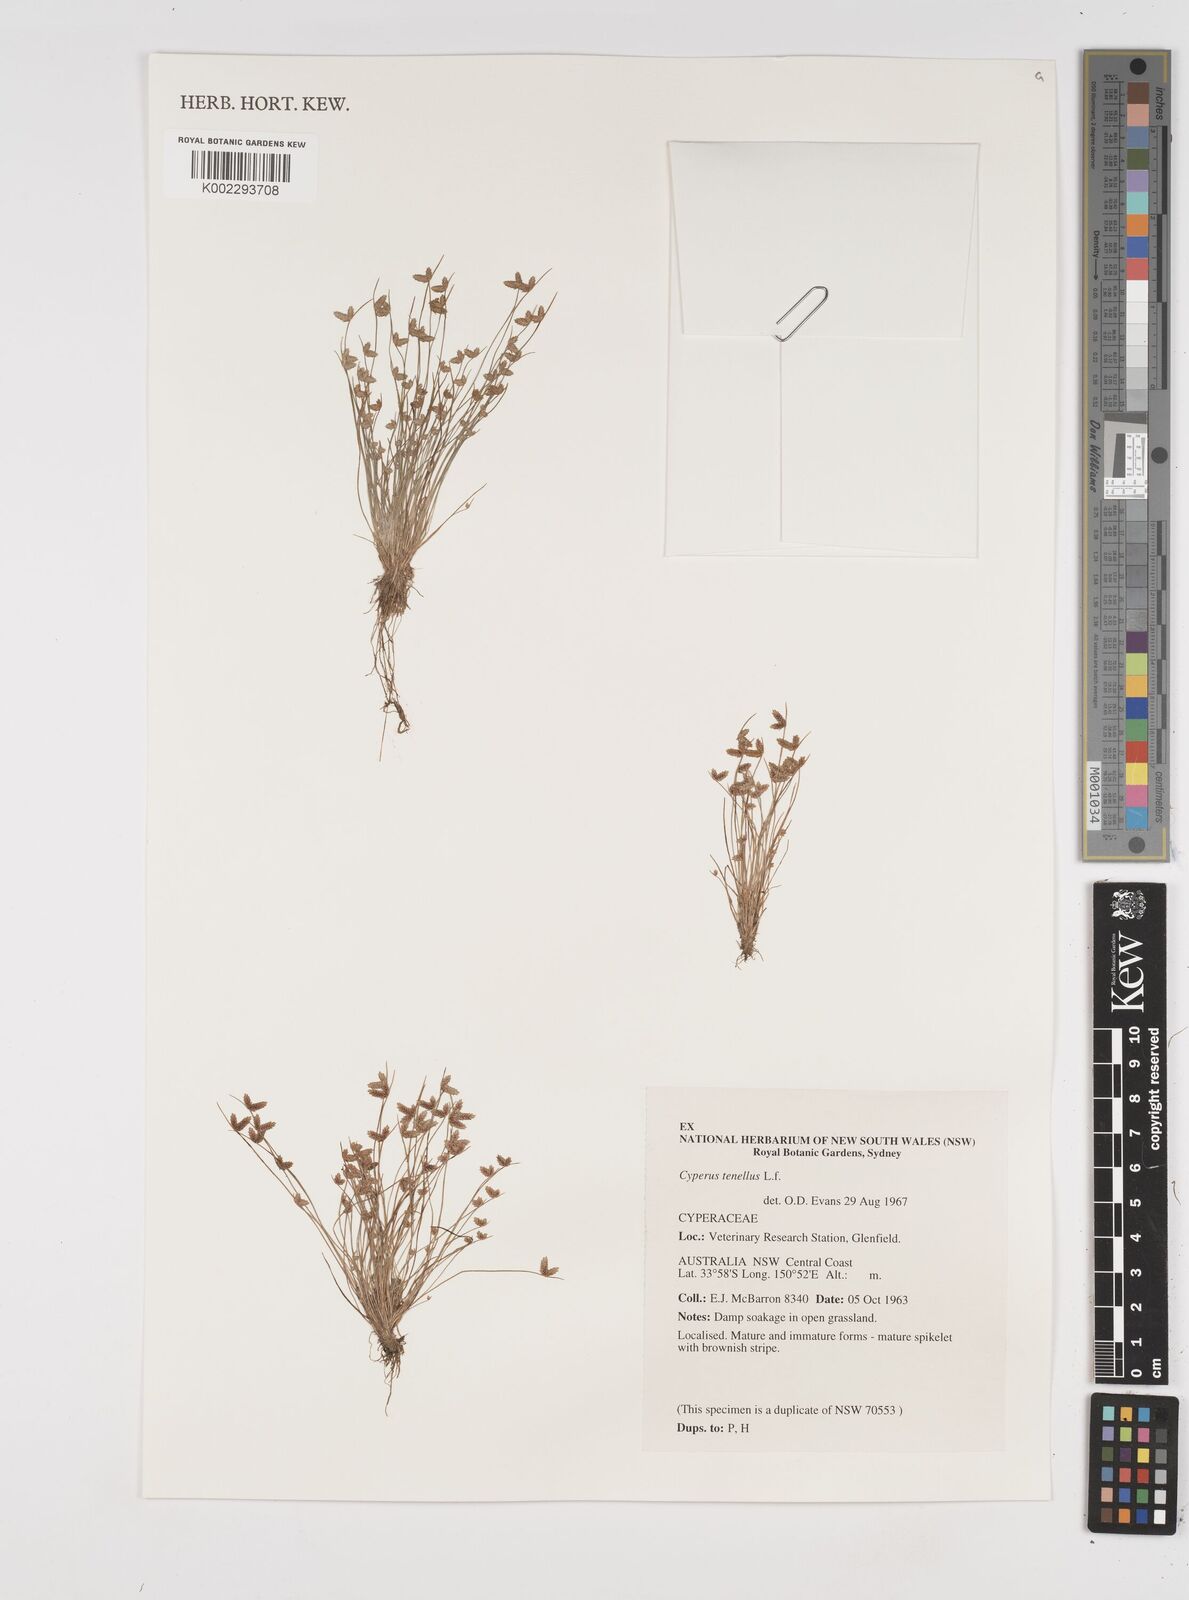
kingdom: Plantae
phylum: Tracheophyta
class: Liliopsida
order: Poales
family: Cyperaceae
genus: Isolepis
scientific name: Isolepis levynsiana
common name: Sedge
